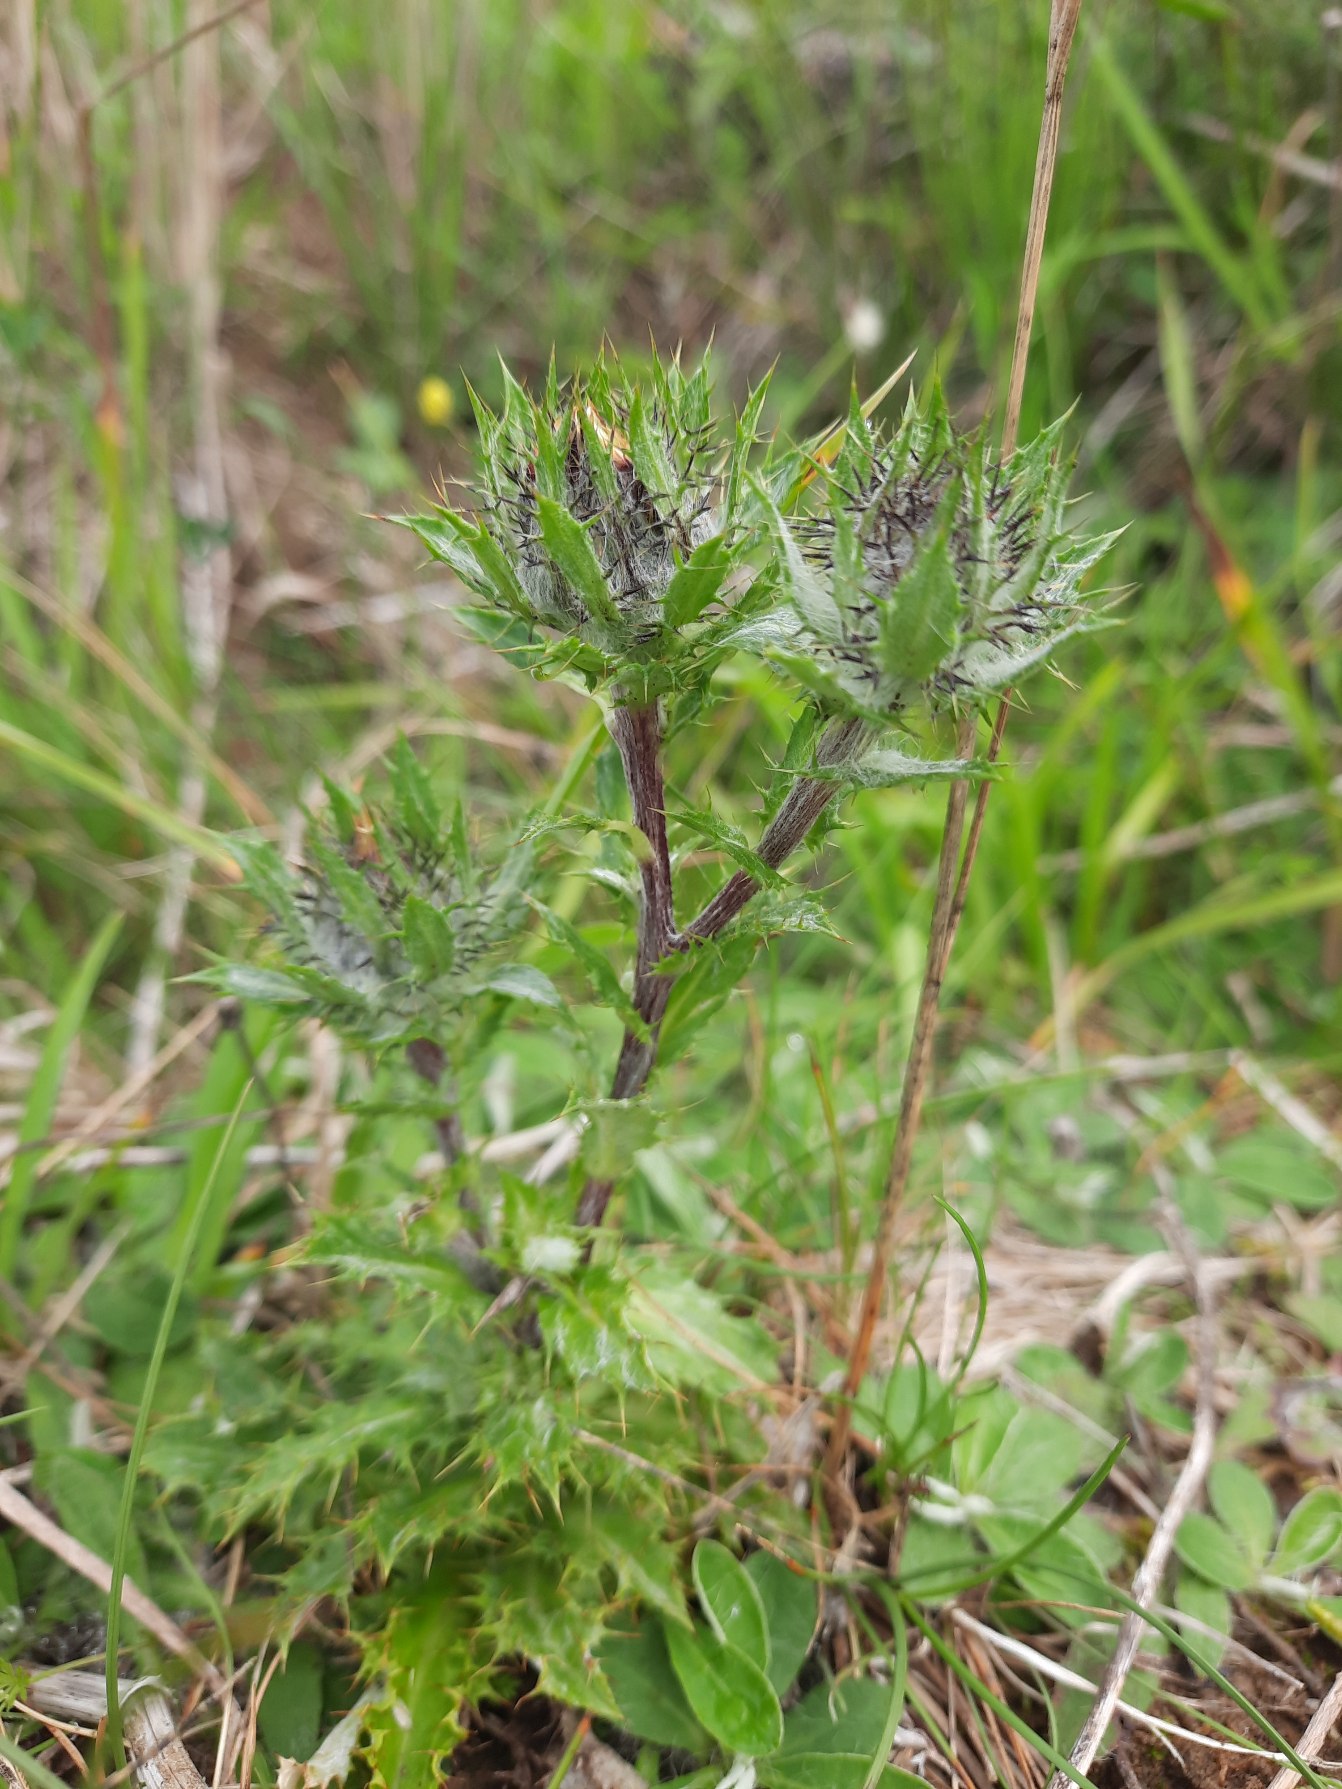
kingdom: Plantae
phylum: Tracheophyta
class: Magnoliopsida
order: Asterales
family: Asteraceae
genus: Carlina
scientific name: Carlina vulgaris
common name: Bakketidsel
